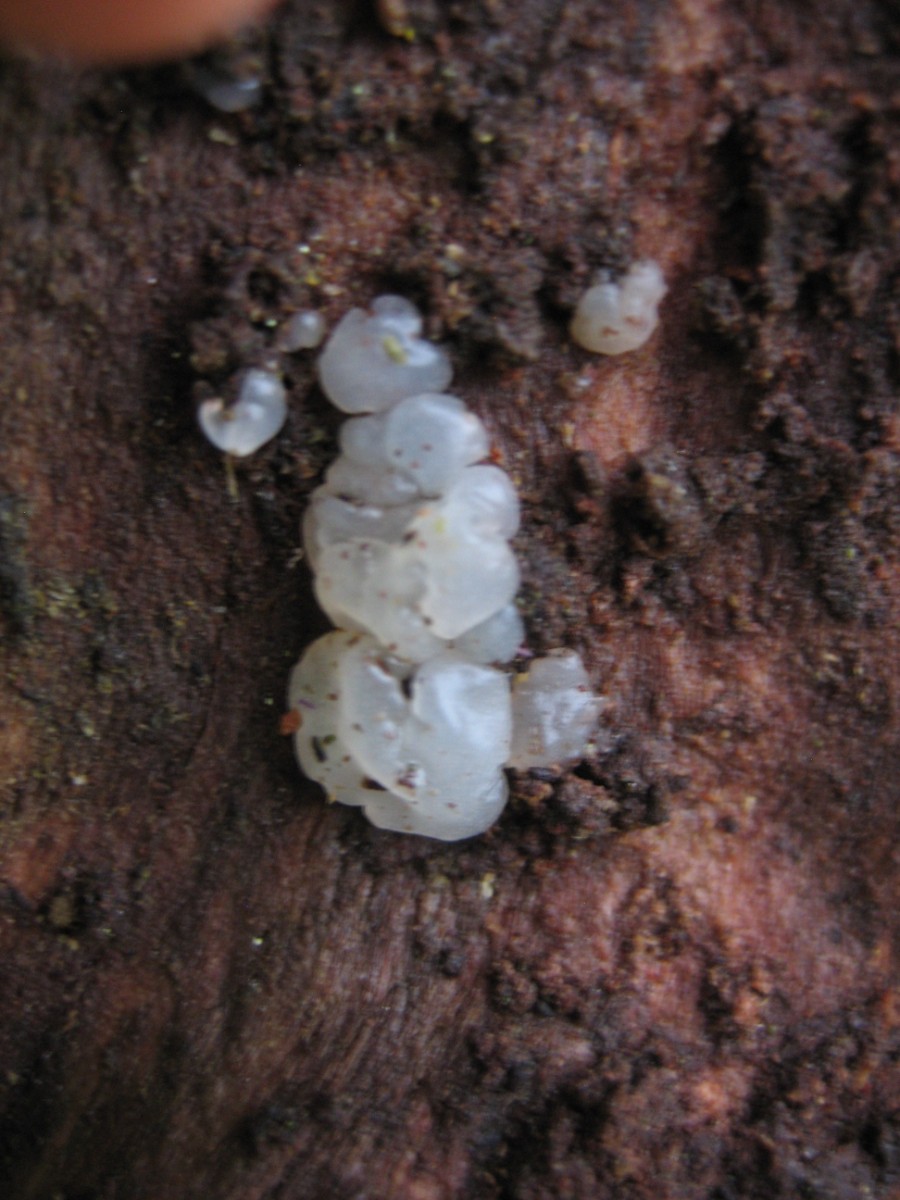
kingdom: Fungi
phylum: Basidiomycota
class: Agaricomycetes
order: Auriculariales
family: Hyaloriaceae
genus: Myxarium
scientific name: Myxarium
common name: bævretop
